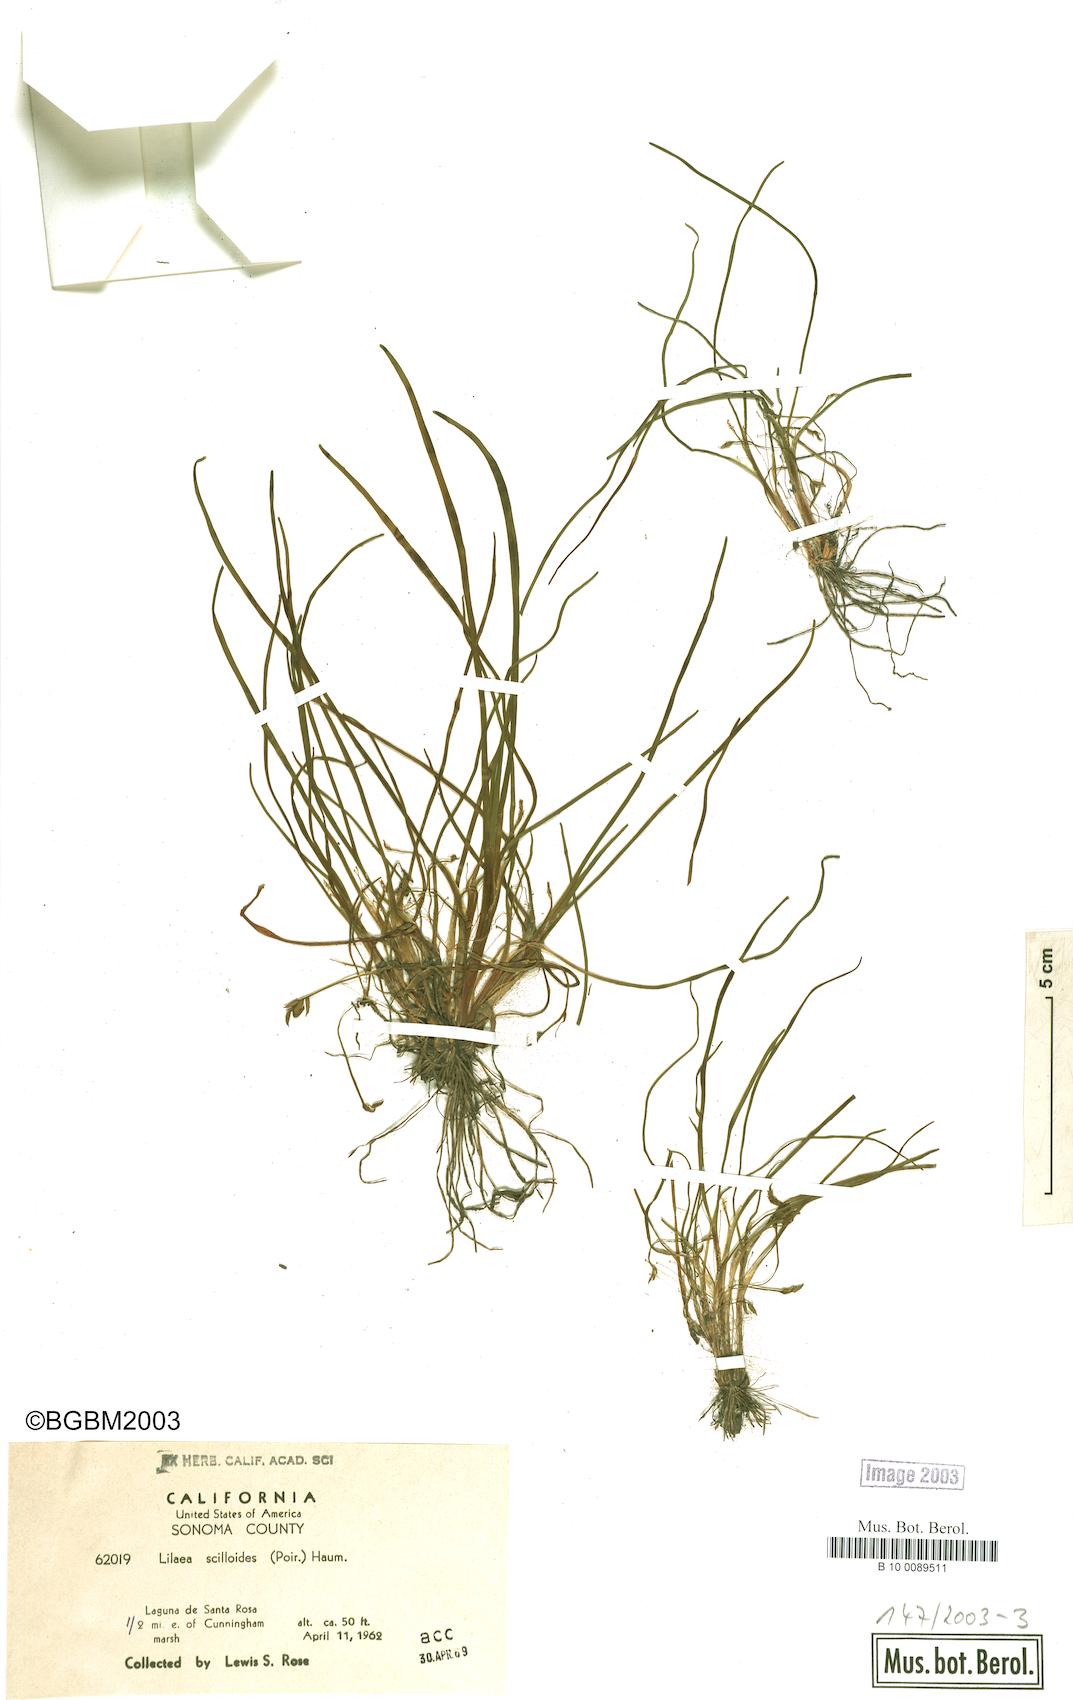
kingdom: Plantae
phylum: Tracheophyta
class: Liliopsida
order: Alismatales
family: Juncaginaceae
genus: Triglochin
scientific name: Triglochin scilloides
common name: Awl-leaved lilaea
